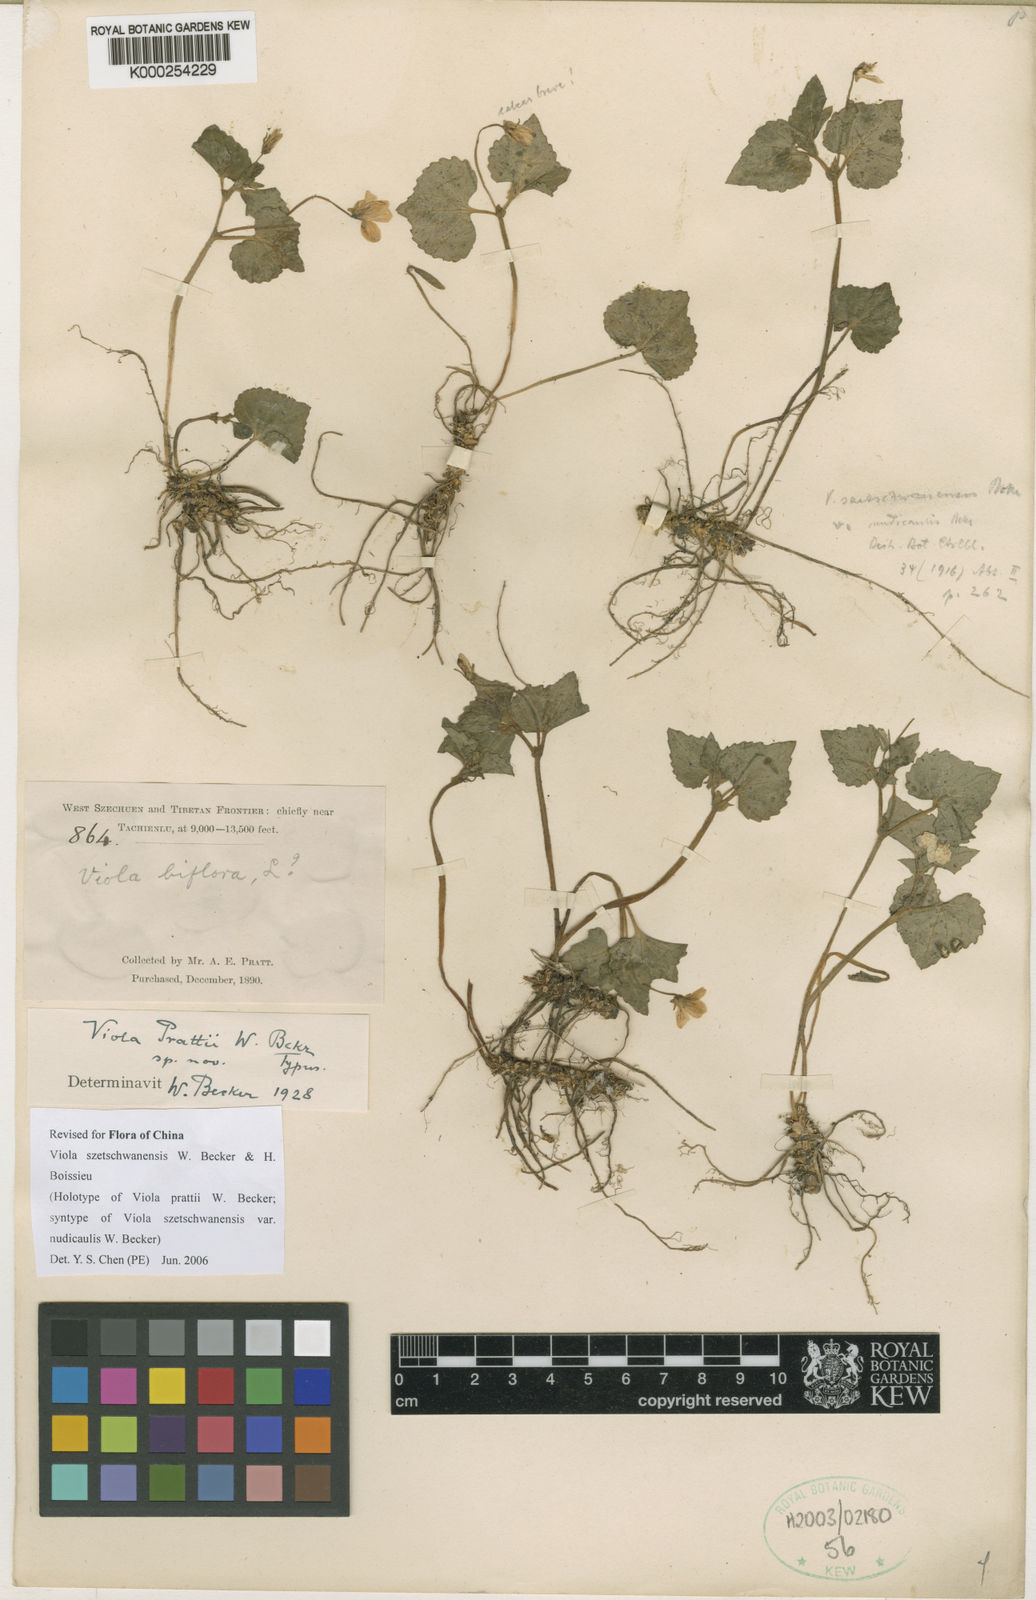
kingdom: Plantae
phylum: Tracheophyta
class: Magnoliopsida
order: Malpighiales
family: Violaceae
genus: Viola
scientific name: Viola szetschwanensis
